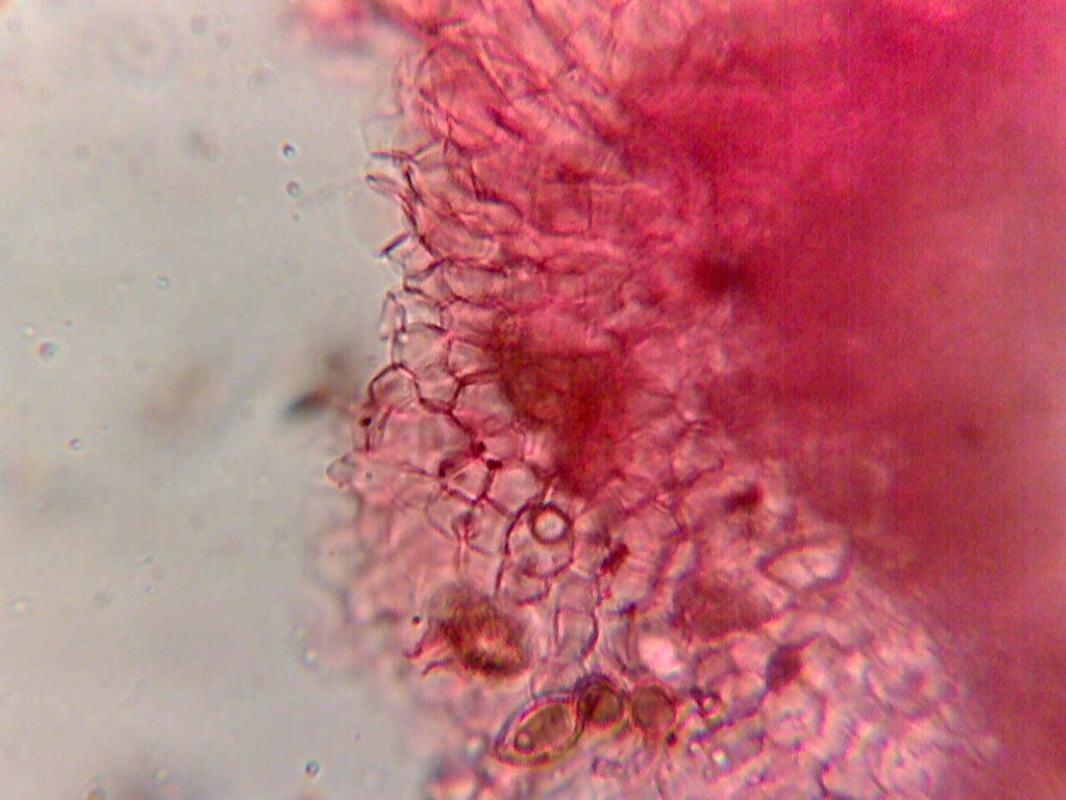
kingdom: Fungi
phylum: Basidiomycota
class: Agaricomycetes
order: Agaricales
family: Cortinariaceae
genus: Protoglossum
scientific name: Protoglossum niveum
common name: hvid knoldtrøffel
